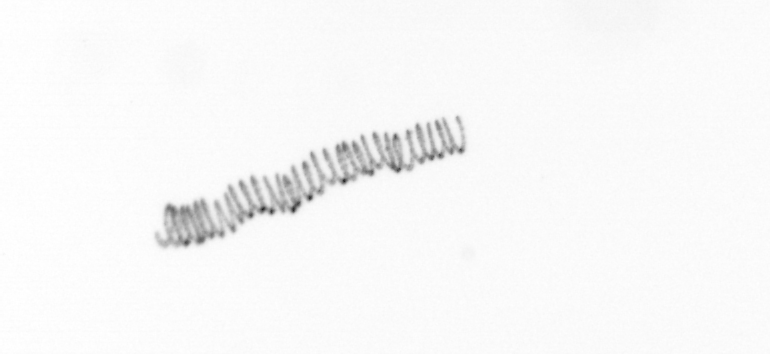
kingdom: Chromista
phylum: Ochrophyta
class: Bacillariophyceae
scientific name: Bacillariophyceae
